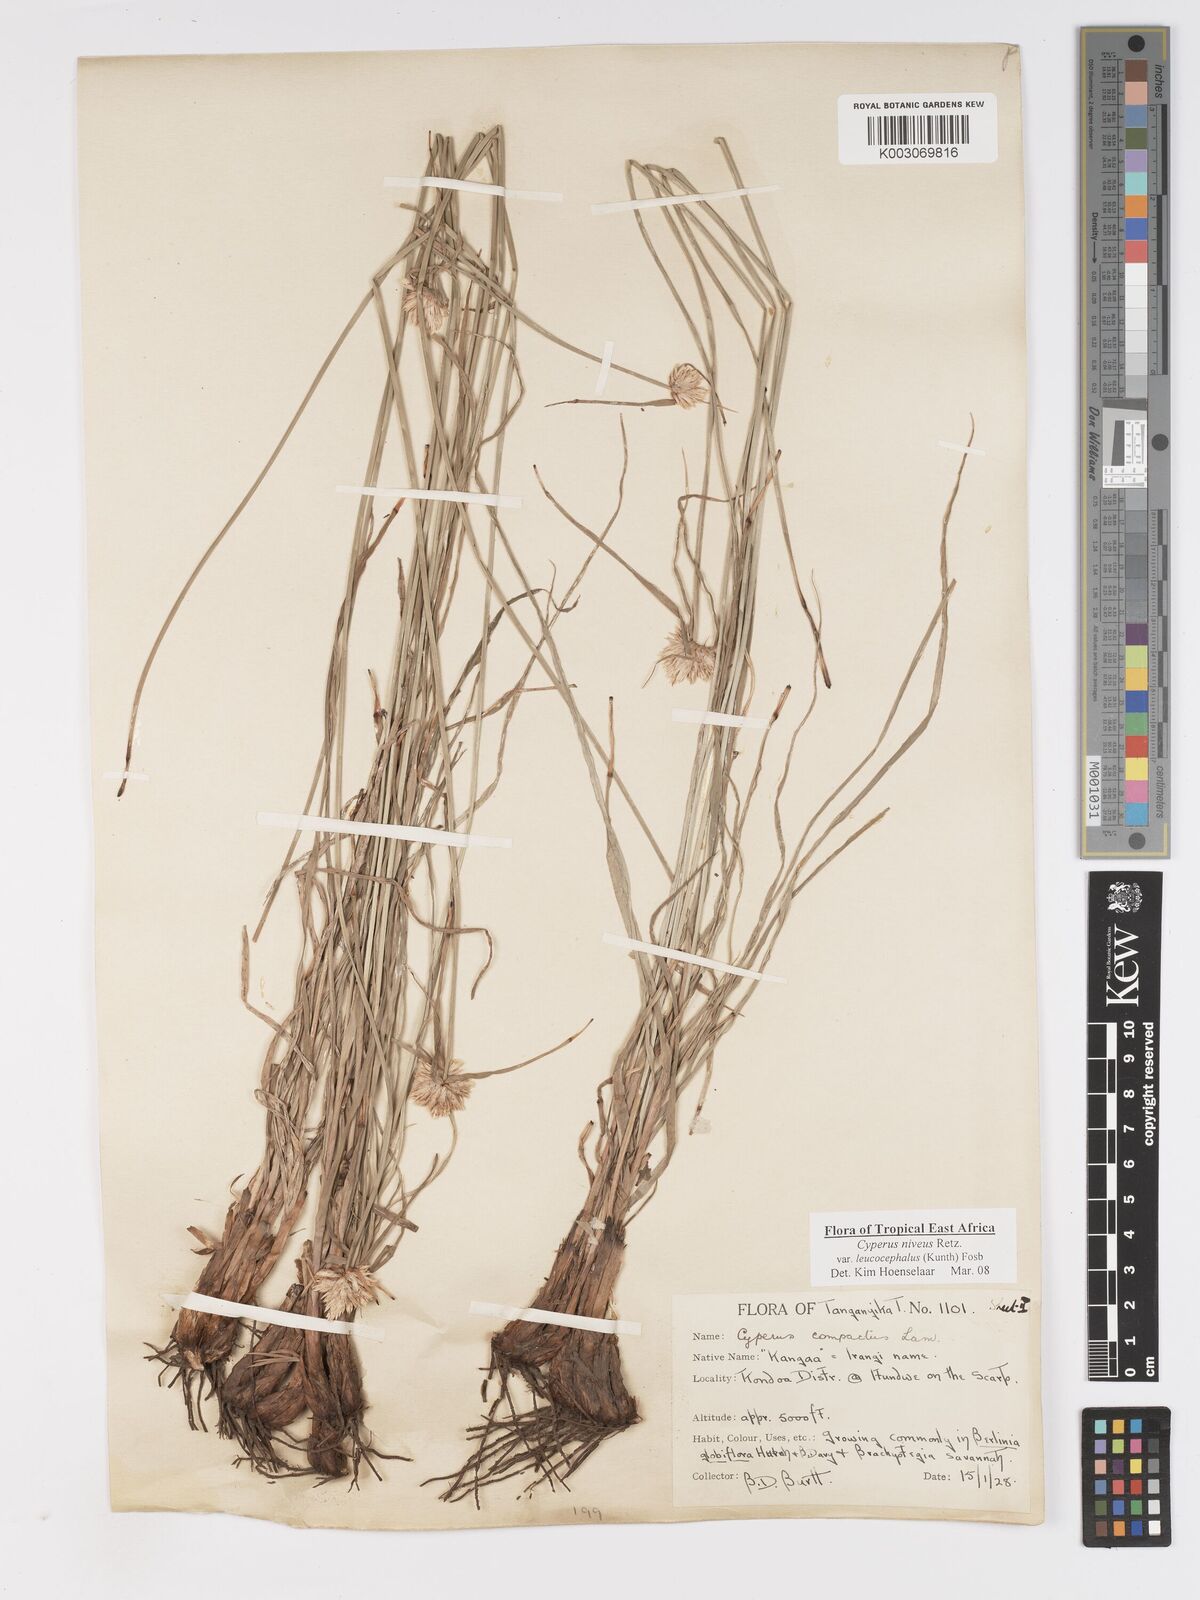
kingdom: Plantae
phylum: Tracheophyta
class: Liliopsida
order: Poales
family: Cyperaceae
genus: Cyperus
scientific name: Cyperus niveus
